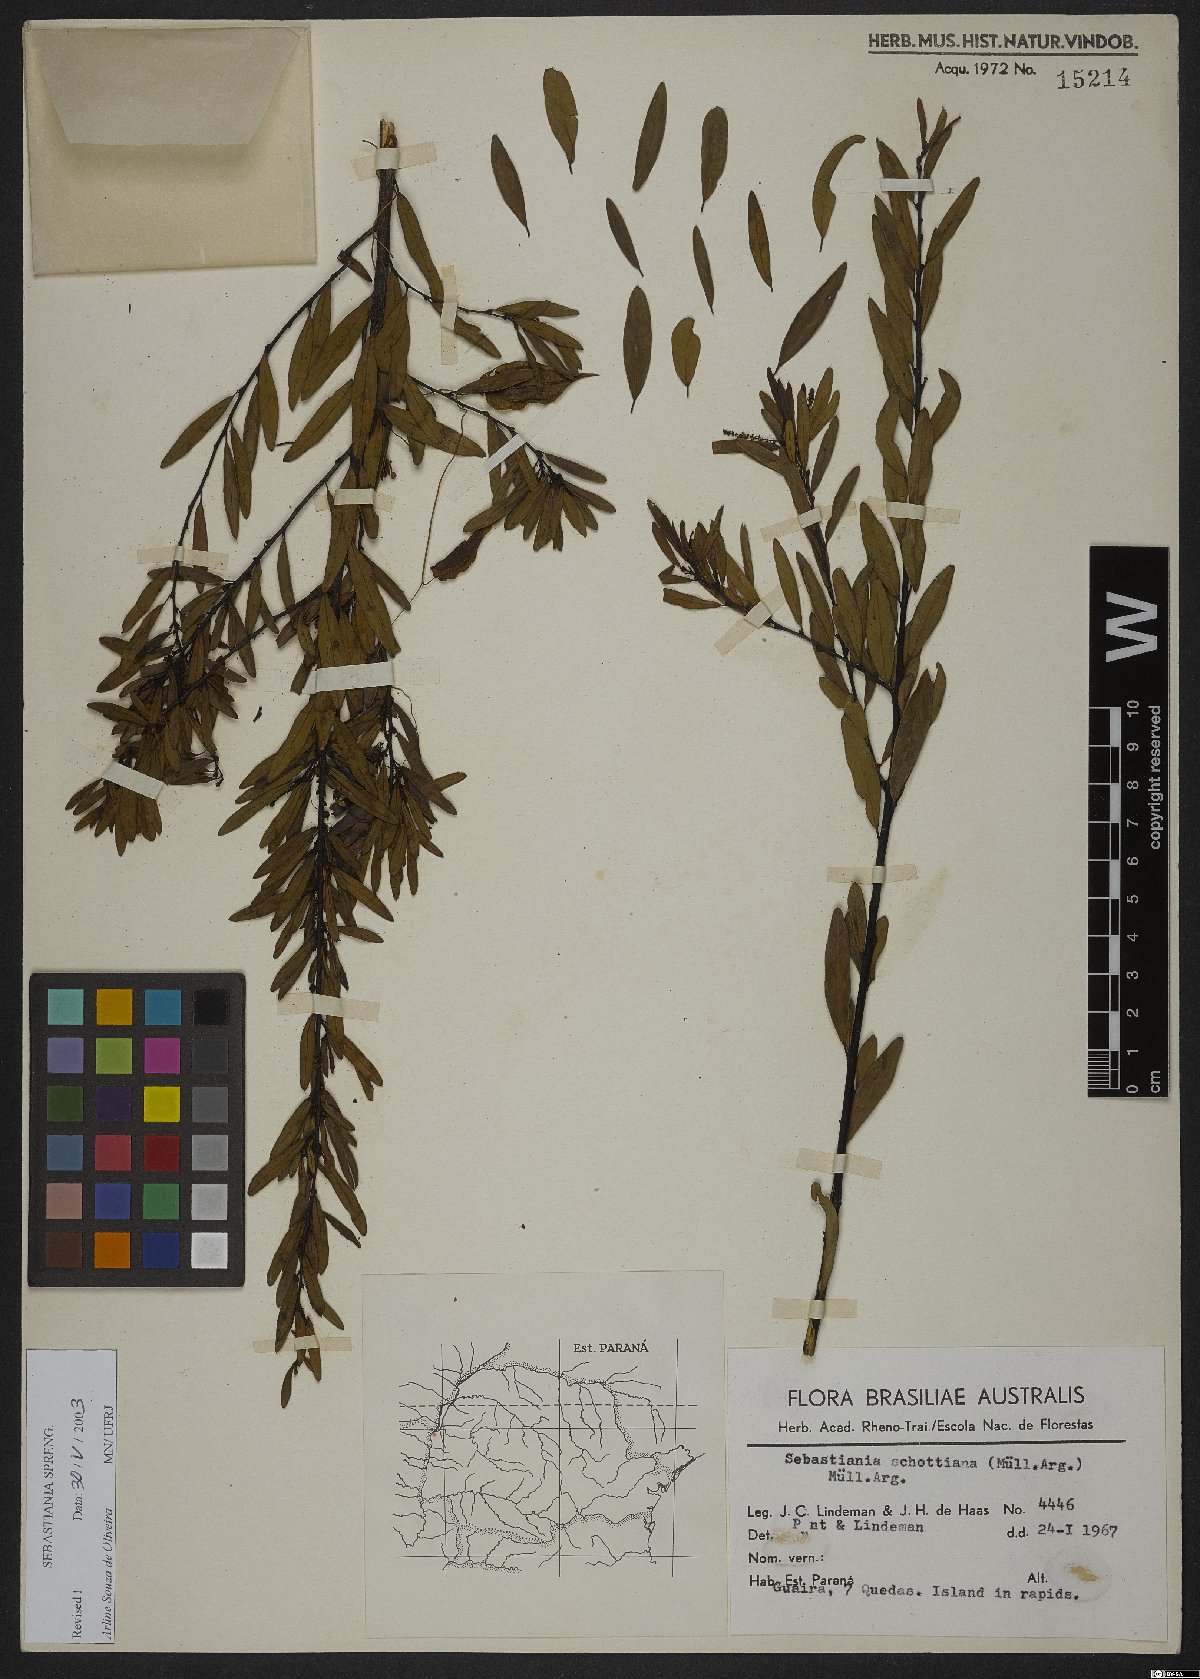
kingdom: Plantae
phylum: Tracheophyta
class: Magnoliopsida
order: Malpighiales
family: Euphorbiaceae
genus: Sebastiania
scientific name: Sebastiania schottiana
